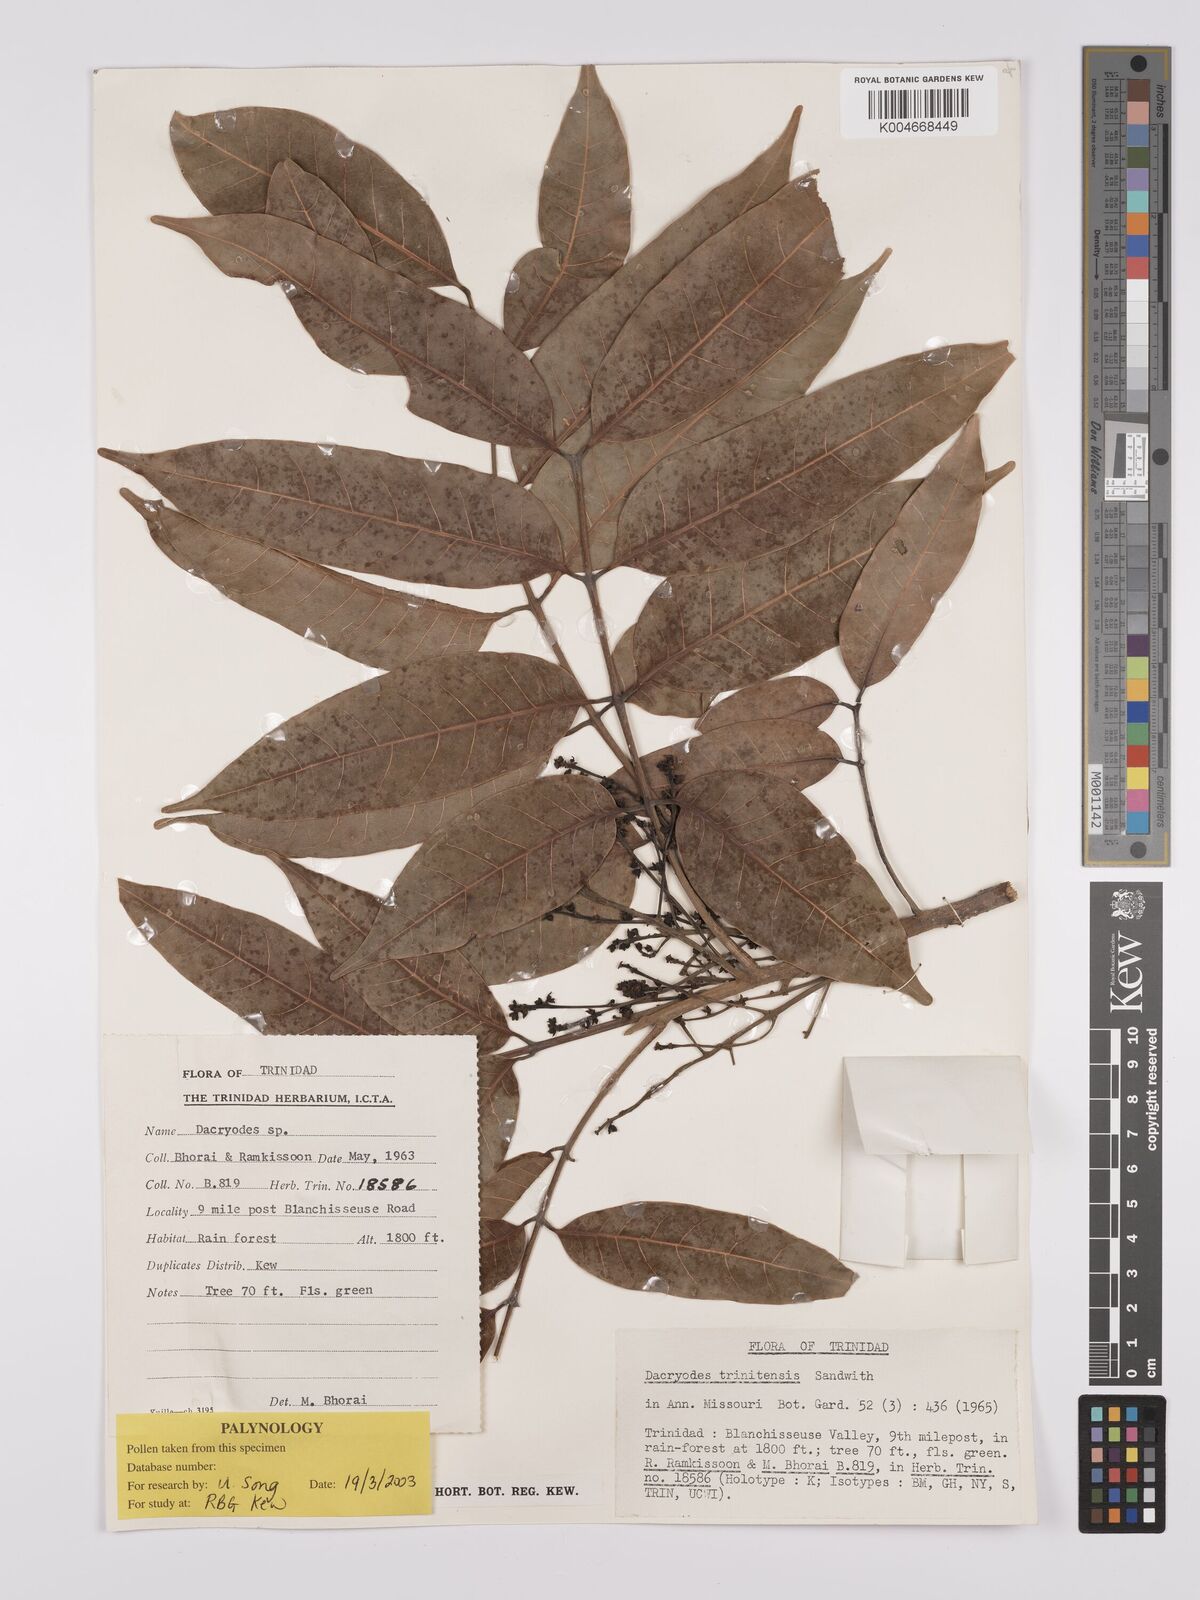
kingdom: Plantae
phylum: Tracheophyta
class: Magnoliopsida
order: Sapindales
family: Burseraceae
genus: Dacryodes
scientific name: Dacryodes belemensis
